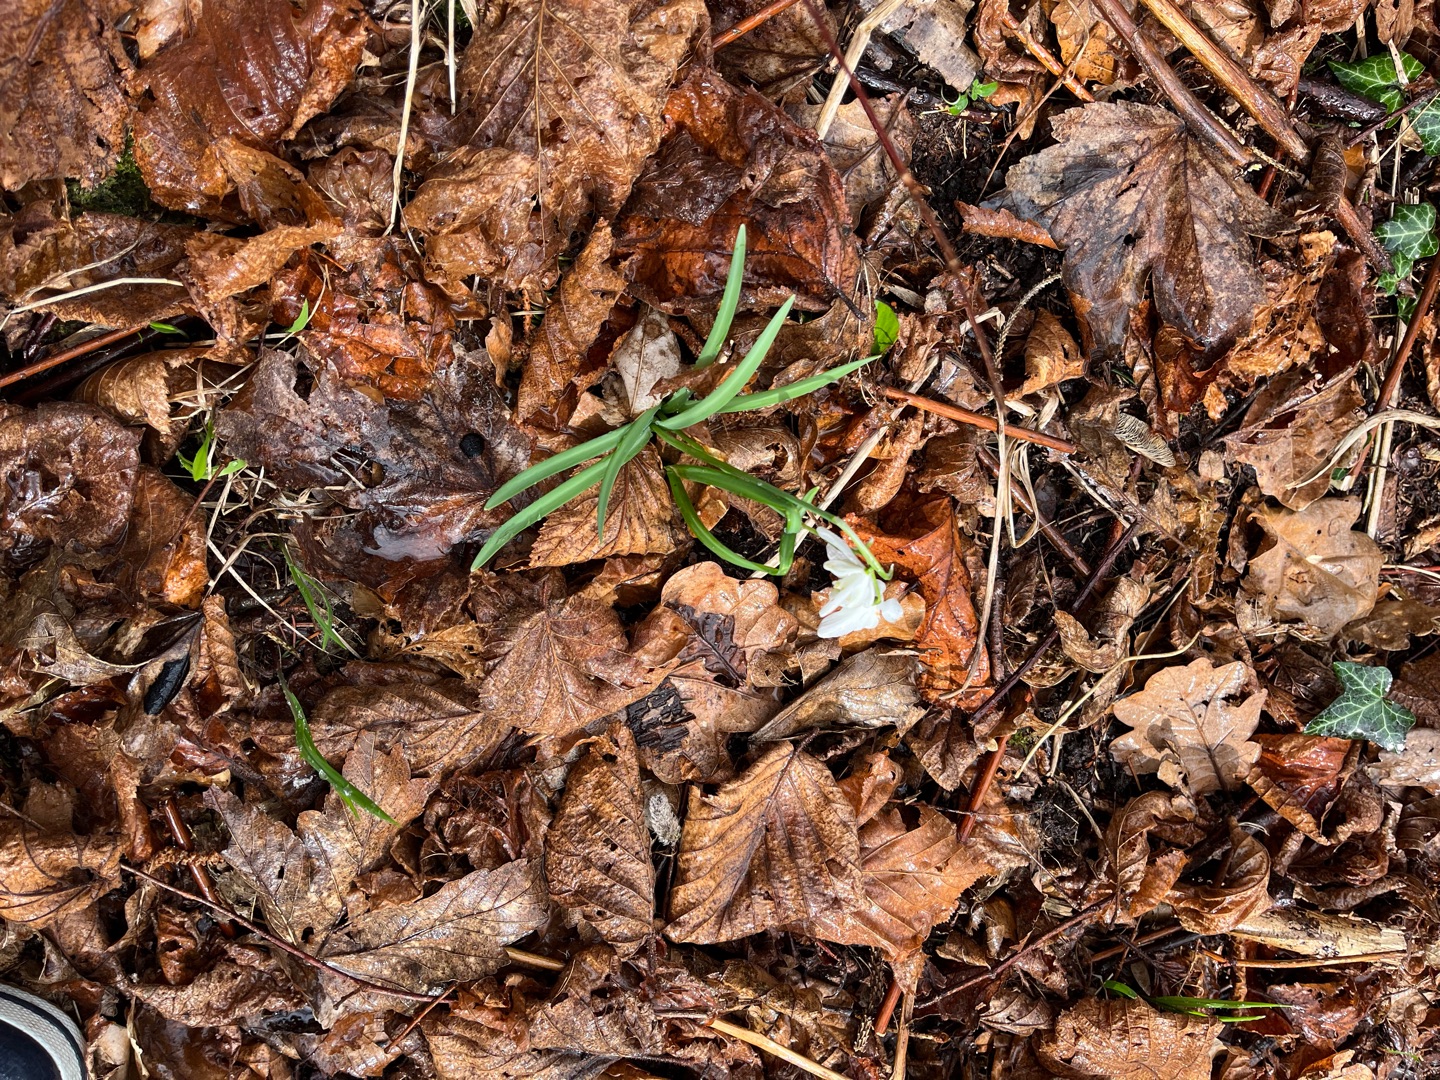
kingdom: Plantae
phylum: Tracheophyta
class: Liliopsida
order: Asparagales
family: Amaryllidaceae
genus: Galanthus
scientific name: Galanthus nivalis
